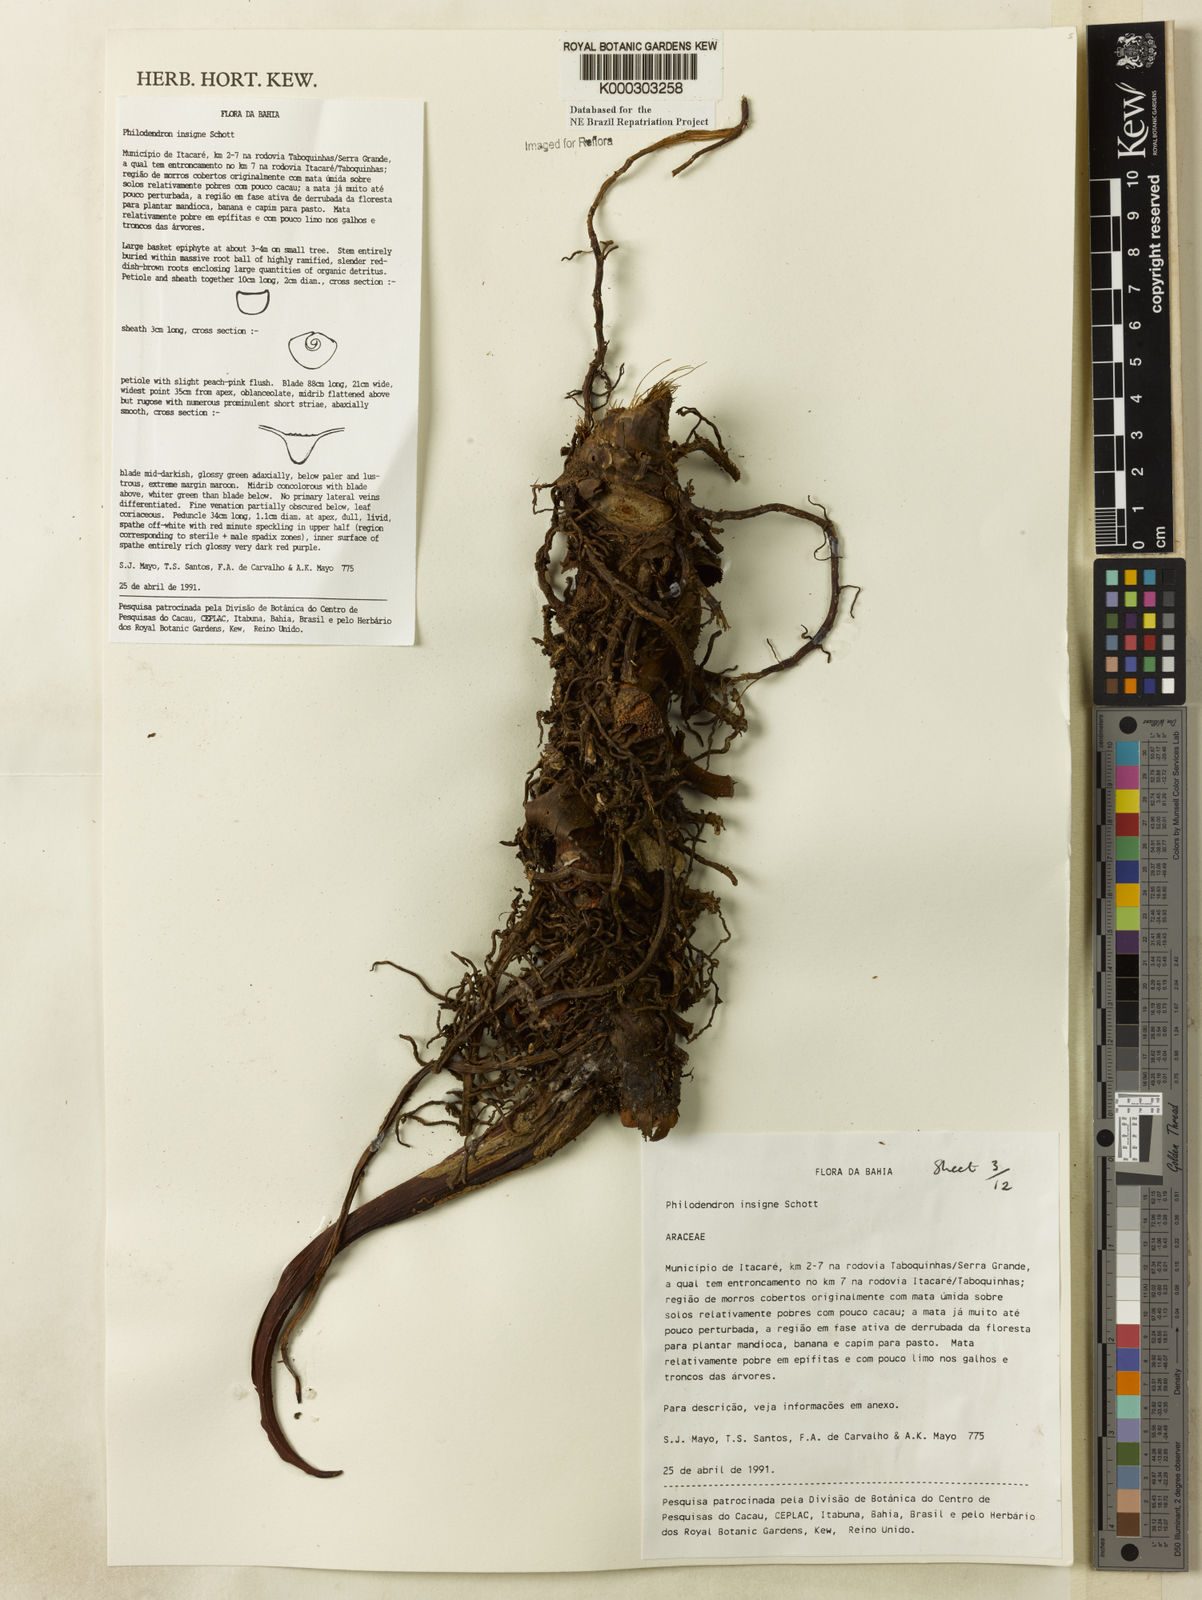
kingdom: Plantae
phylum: Tracheophyta
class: Liliopsida
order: Alismatales
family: Araceae
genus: Philodendron
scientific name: Philodendron insigne
